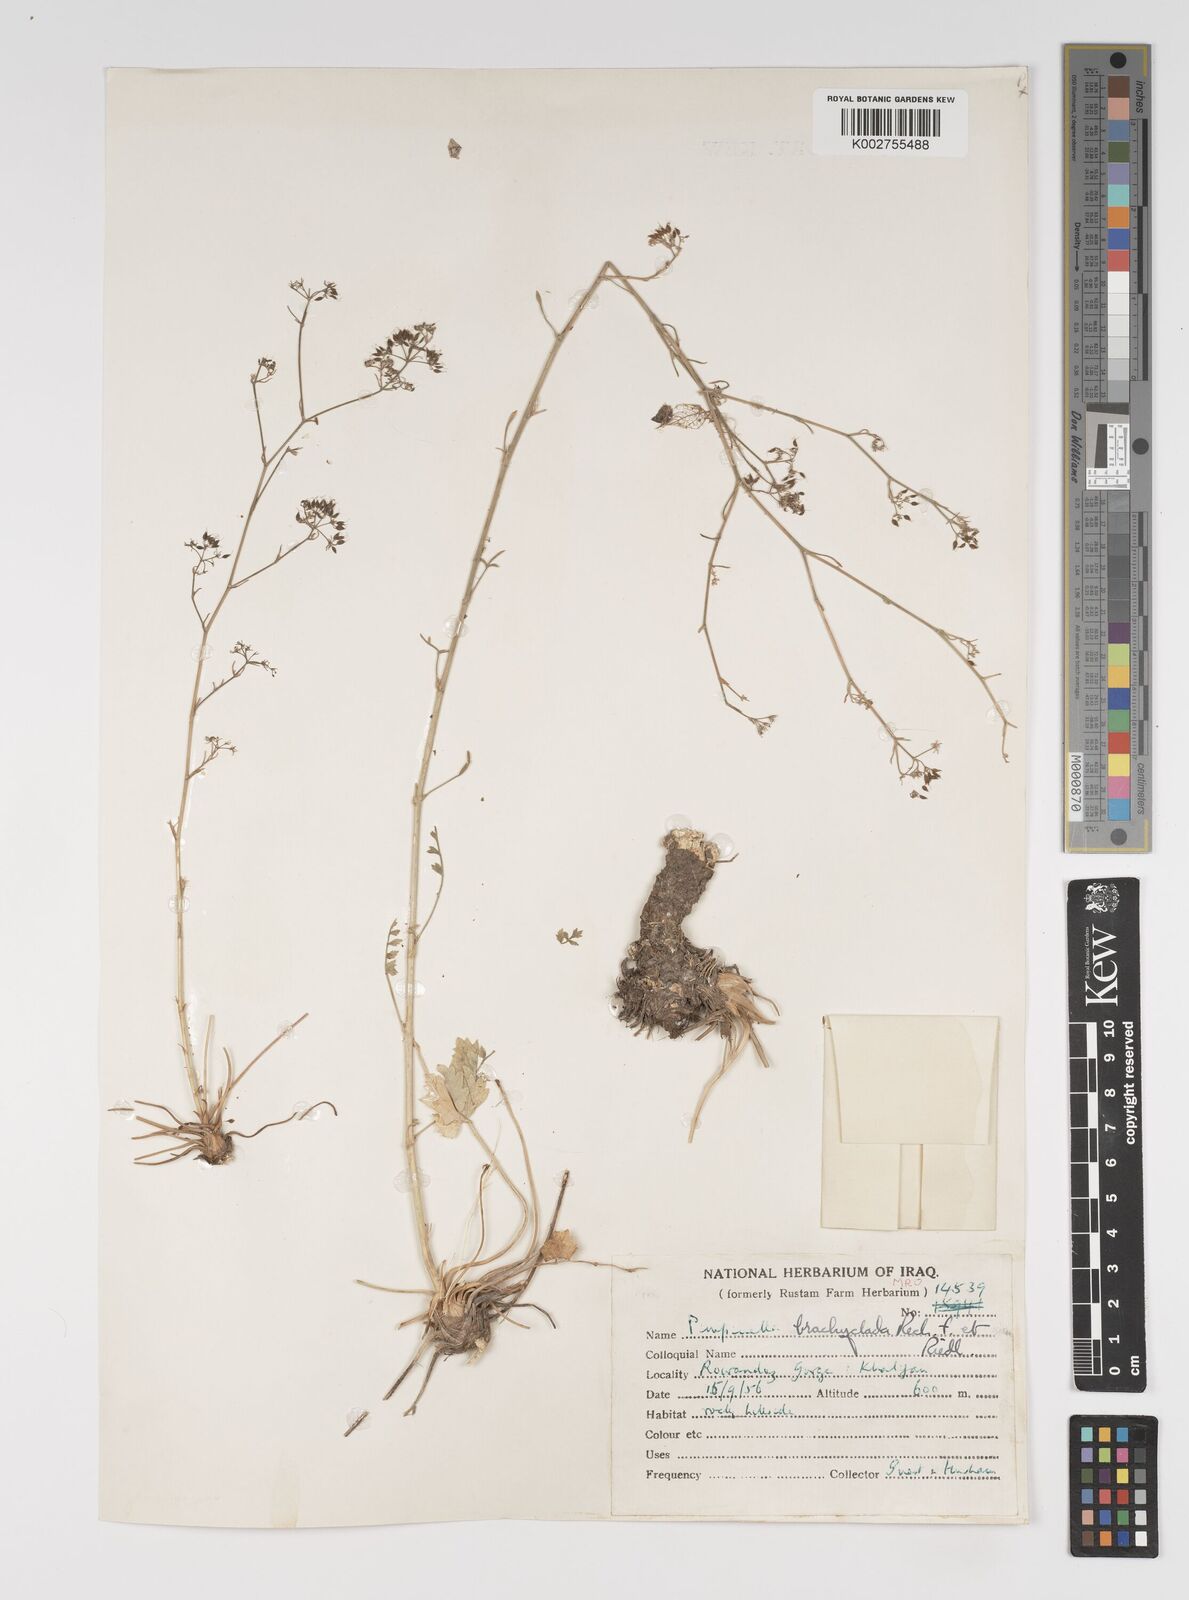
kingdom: Plantae
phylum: Tracheophyta
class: Magnoliopsida
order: Apiales
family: Apiaceae
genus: Pimpinella
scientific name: Pimpinella brachyclada
